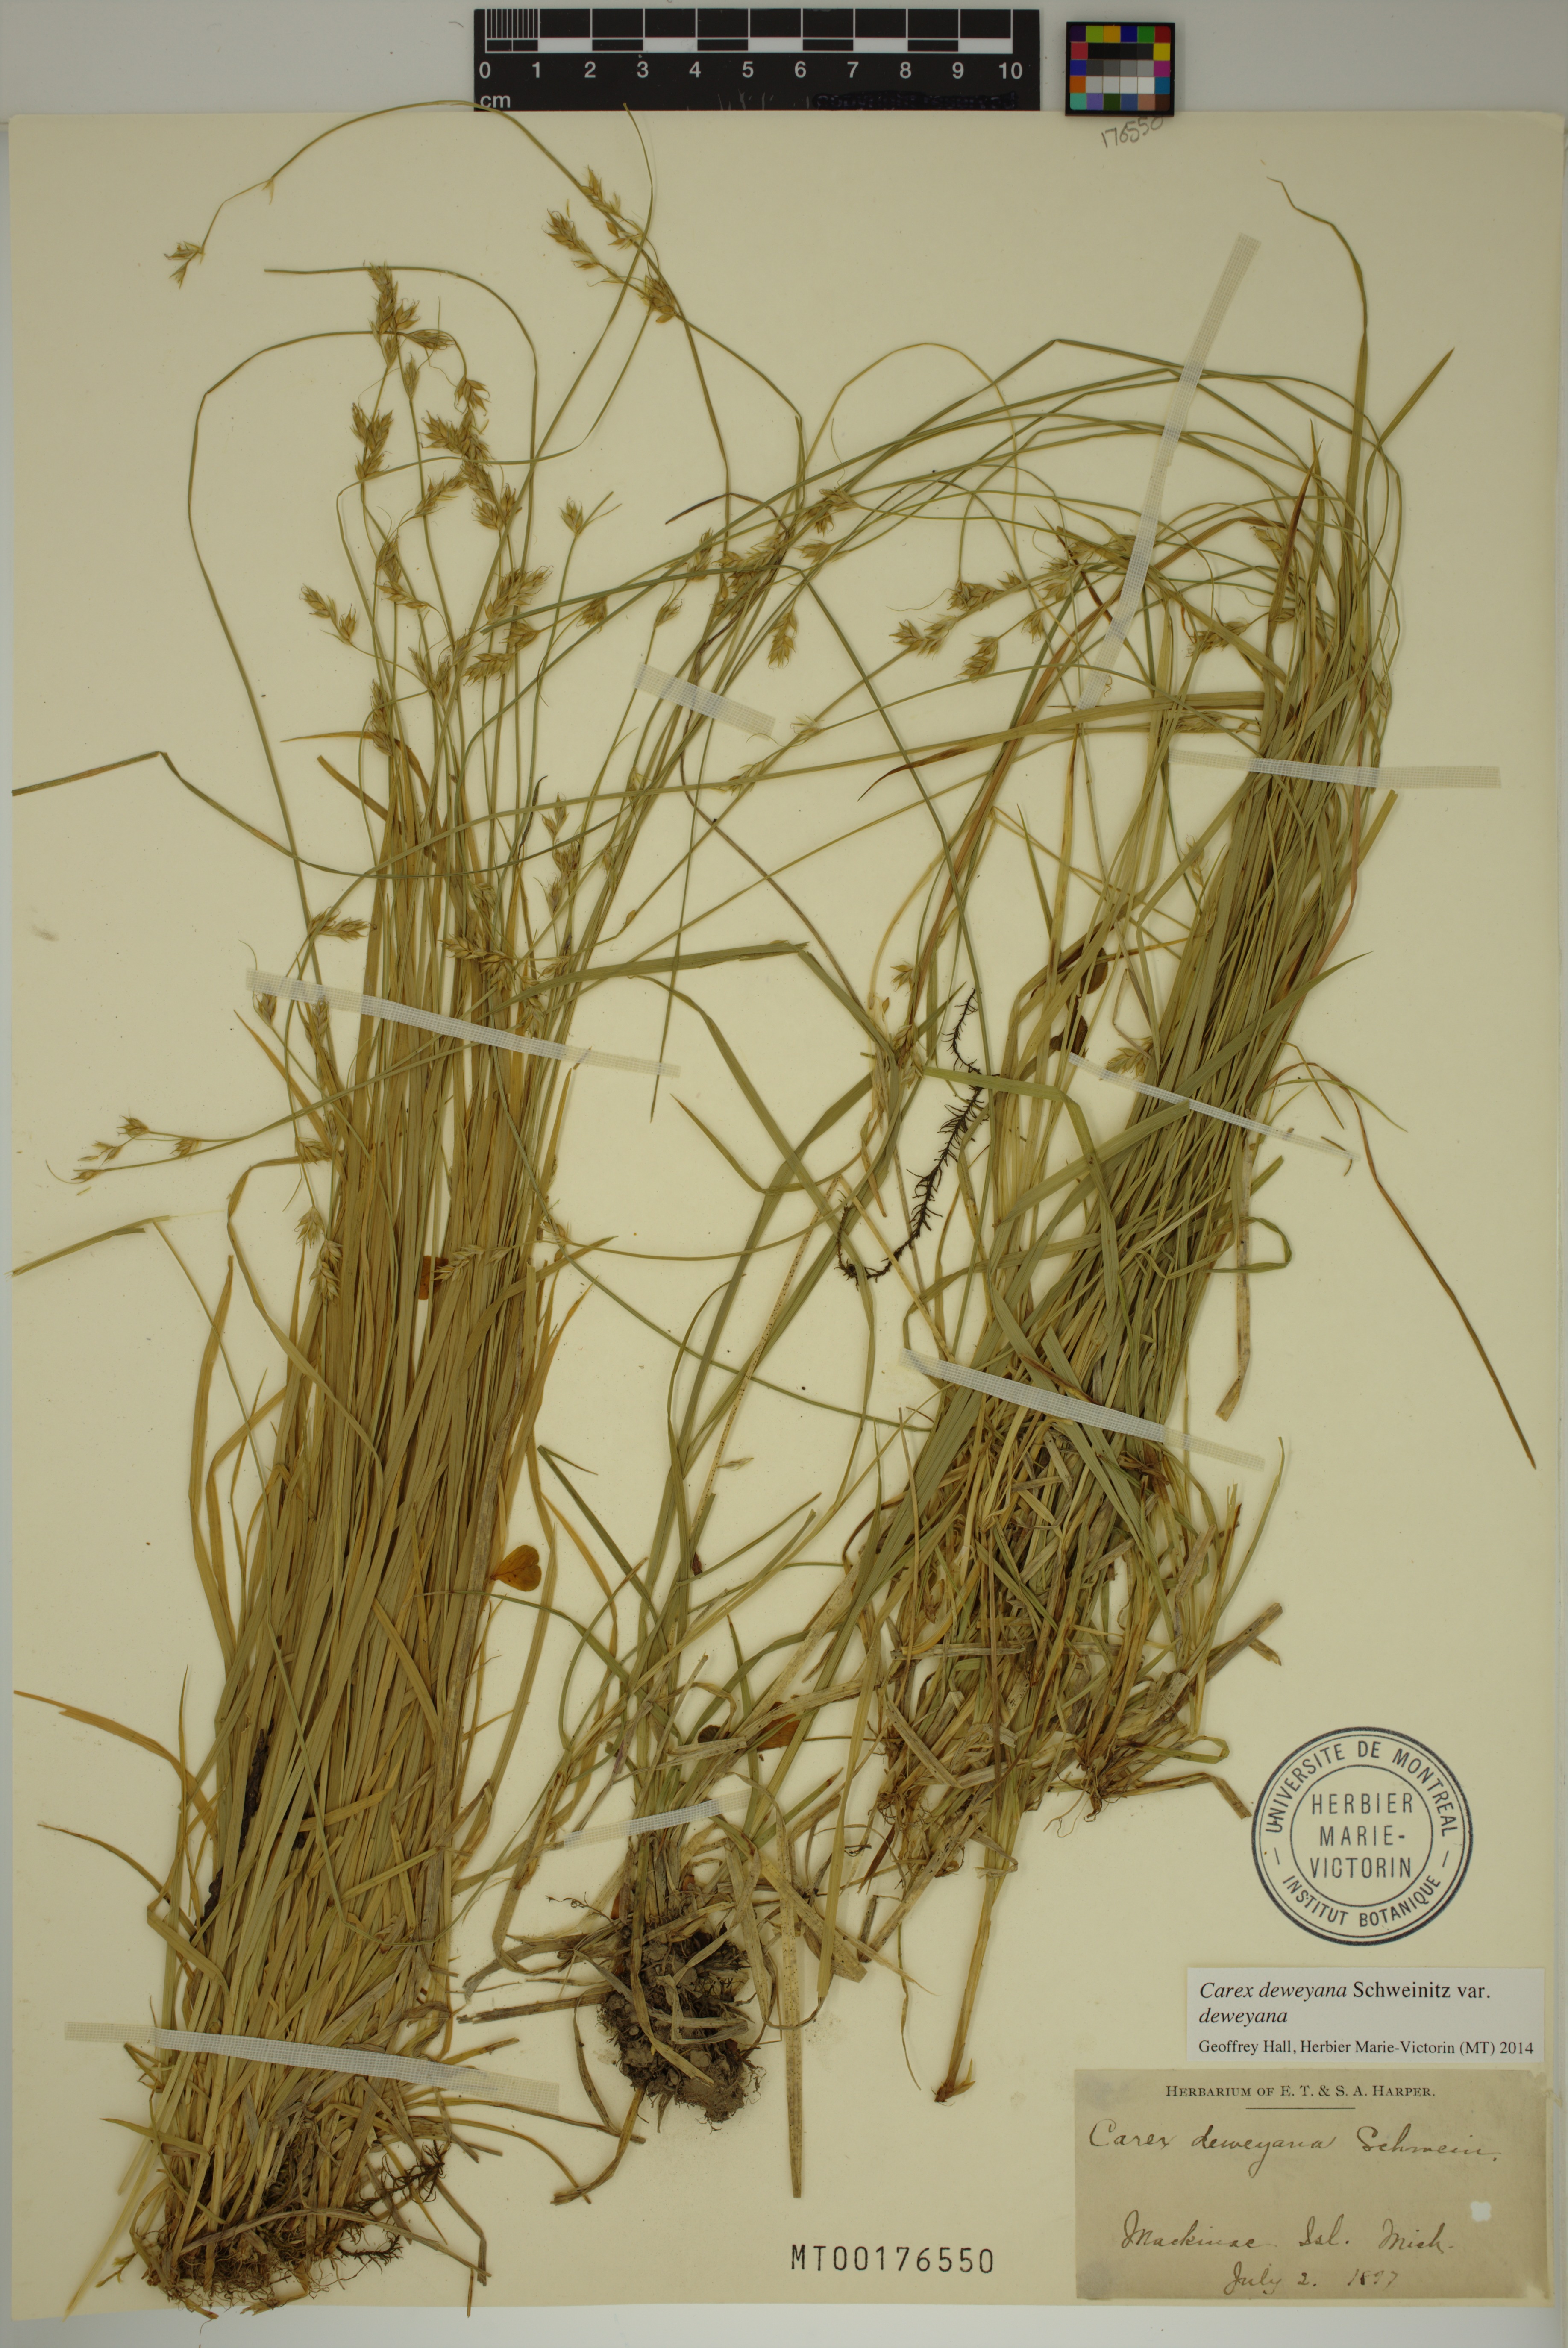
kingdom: Plantae
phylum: Tracheophyta
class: Liliopsida
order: Poales
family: Cyperaceae
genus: Carex
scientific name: Carex deweyana
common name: Dewey's sedge
